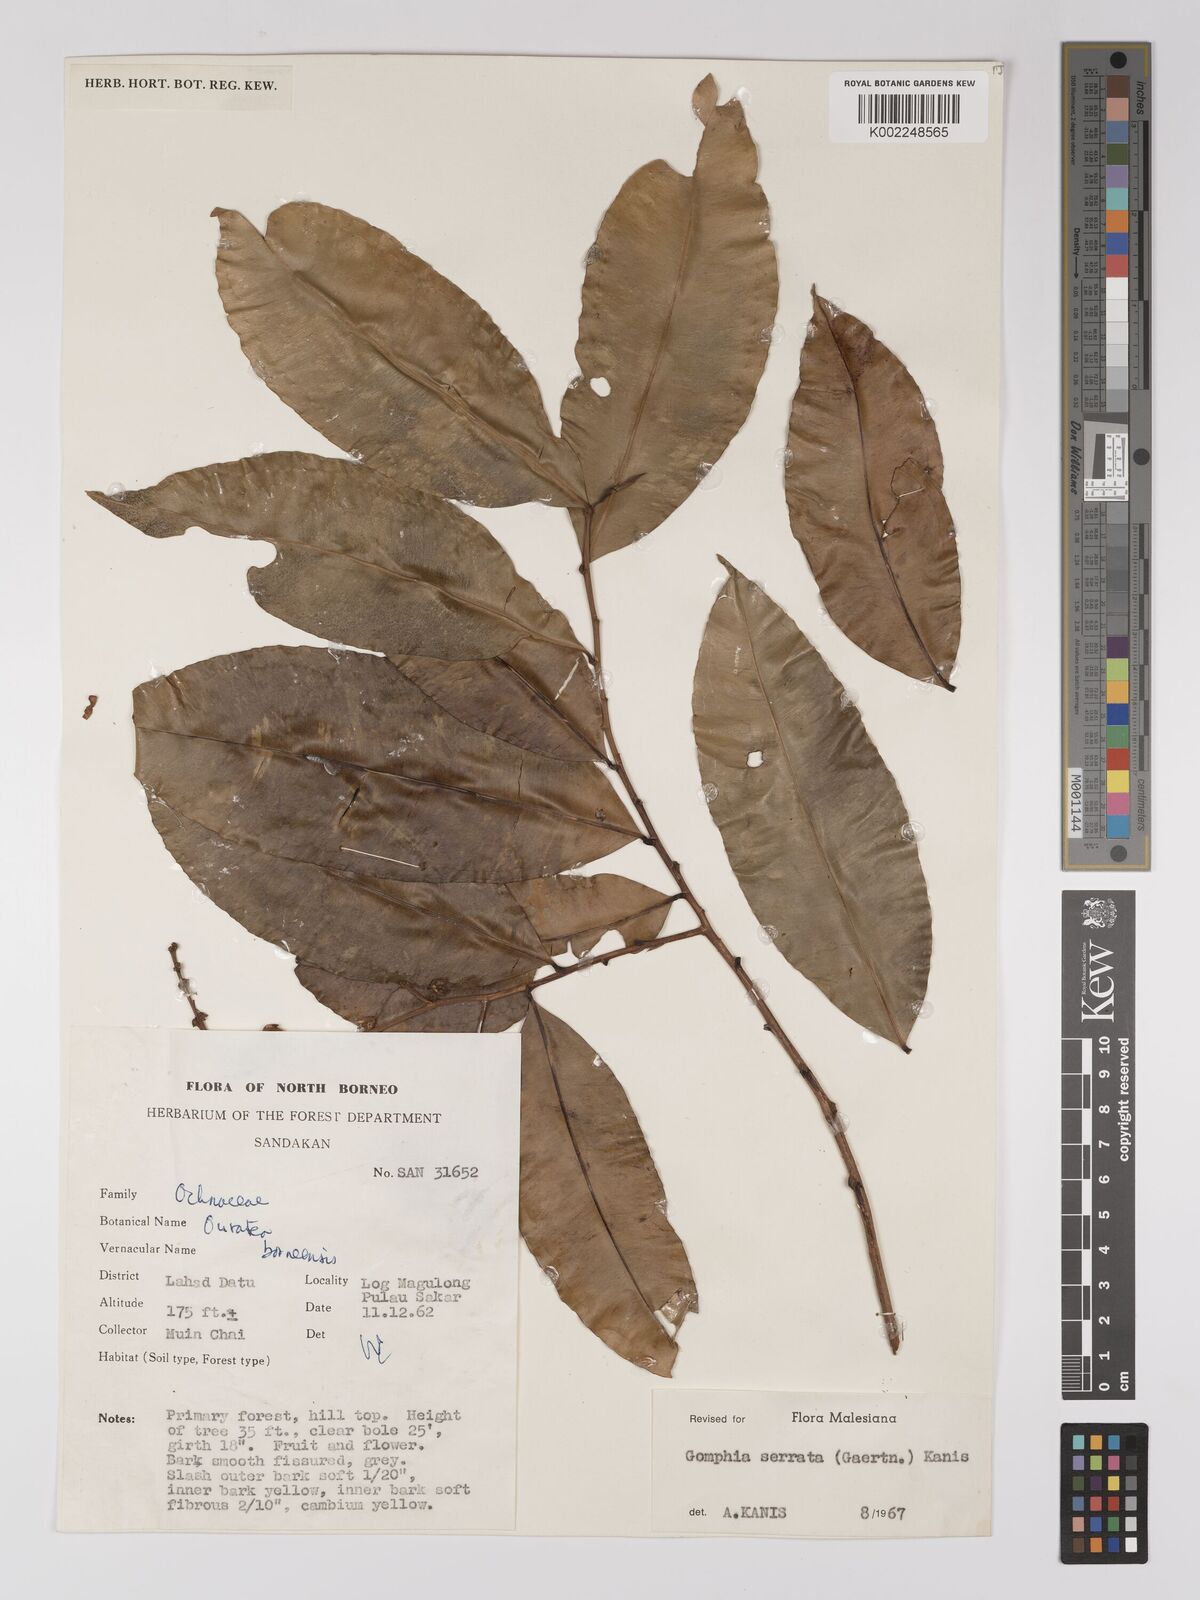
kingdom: Plantae
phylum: Tracheophyta
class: Magnoliopsida
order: Malpighiales
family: Ochnaceae
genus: Gomphia
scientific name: Gomphia serrata
